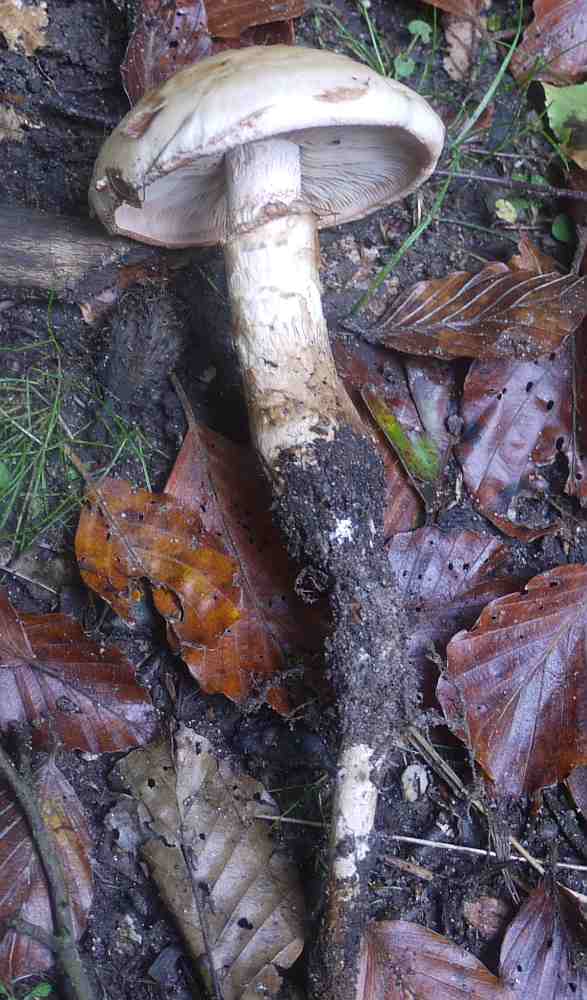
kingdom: Fungi
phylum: Basidiomycota
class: Agaricomycetes
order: Agaricales
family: Hymenogastraceae
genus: Hebeloma
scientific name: Hebeloma radicosum
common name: pælerods-tåreblad
